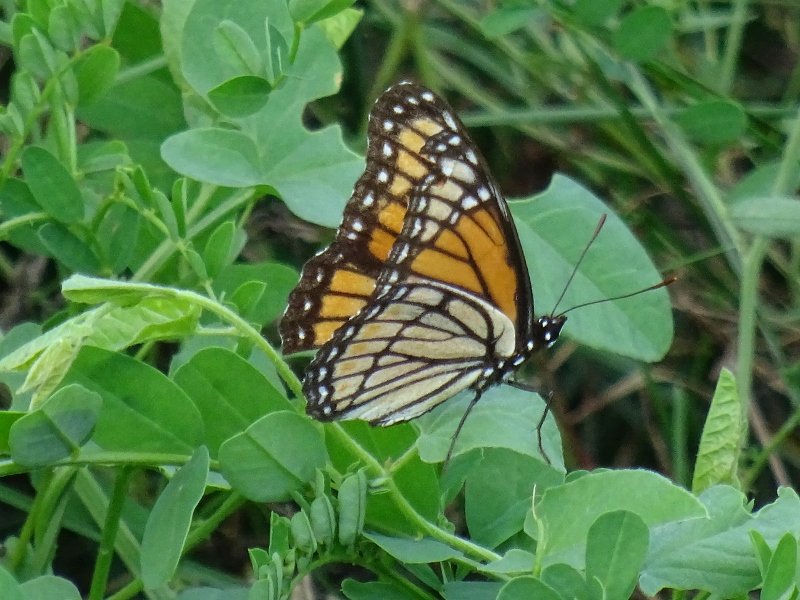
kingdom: Animalia
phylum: Arthropoda
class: Insecta
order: Lepidoptera
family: Nymphalidae
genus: Limenitis
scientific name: Limenitis archippus
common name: Viceroy
